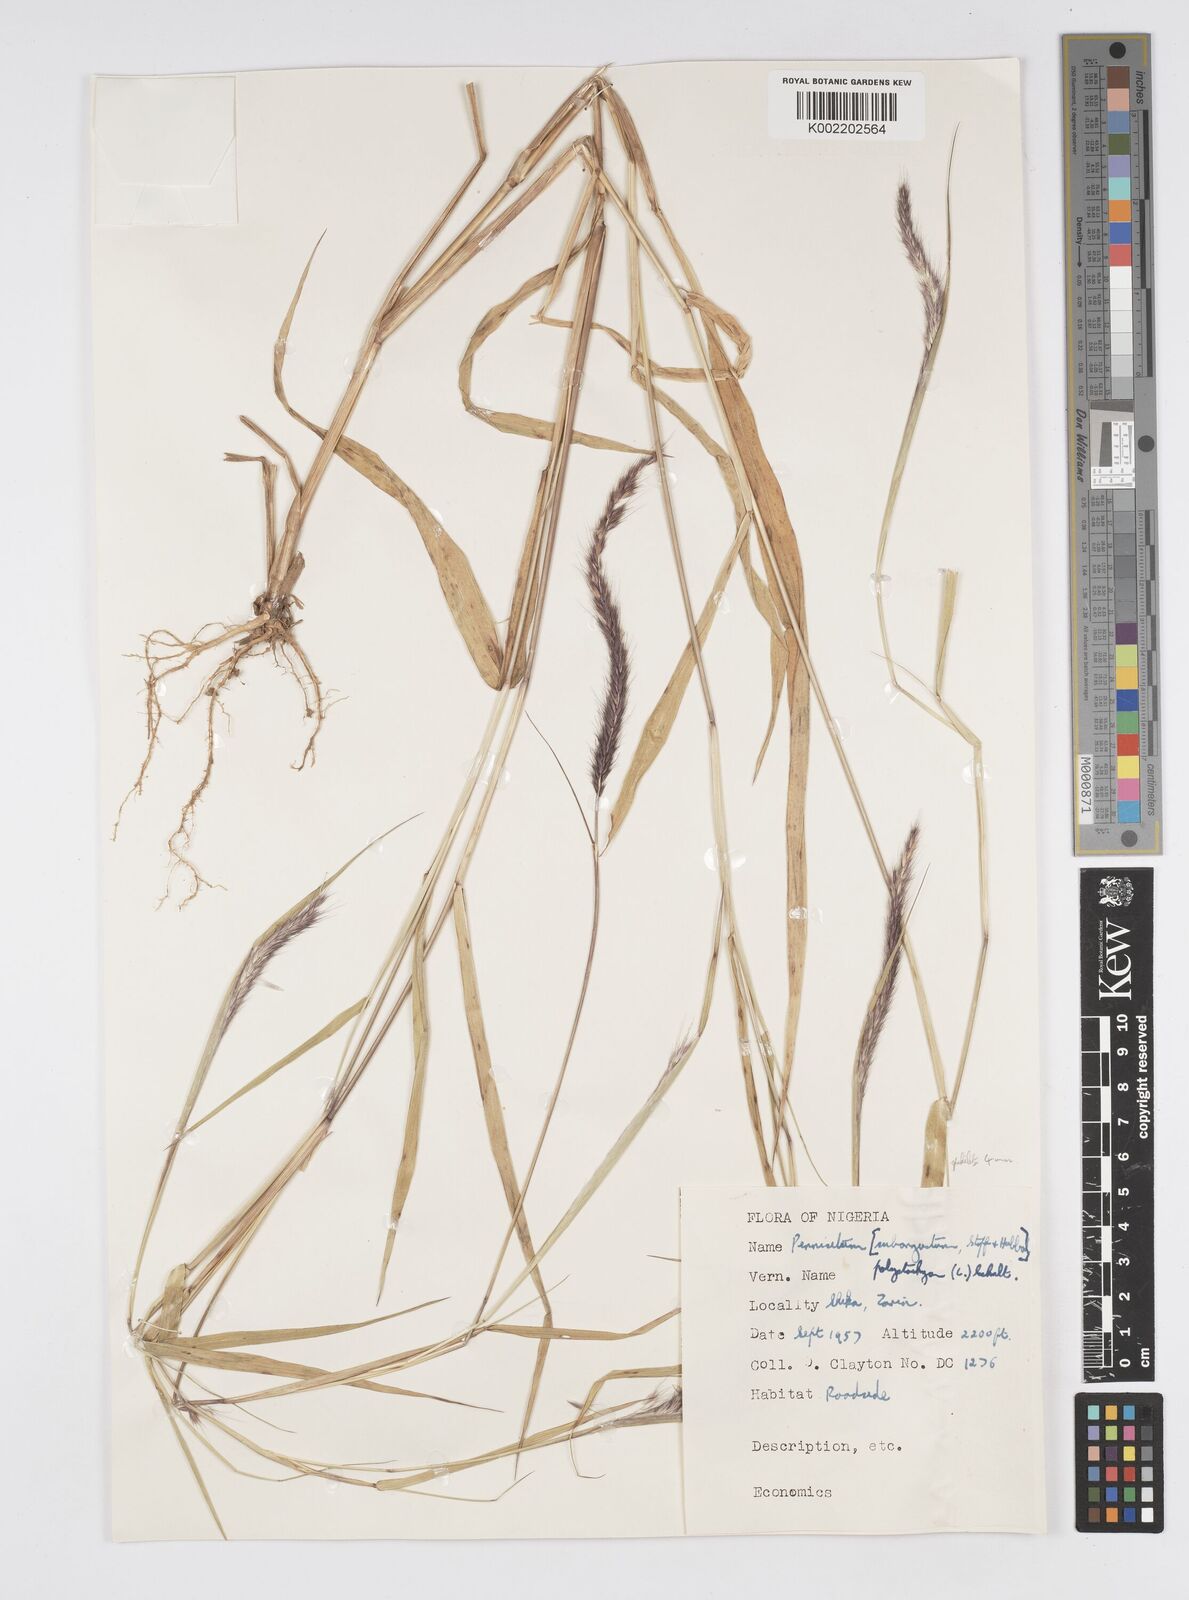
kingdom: Plantae
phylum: Tracheophyta
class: Liliopsida
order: Poales
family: Poaceae
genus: Setaria
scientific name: Setaria parviflora
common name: Knotroot bristle-grass
